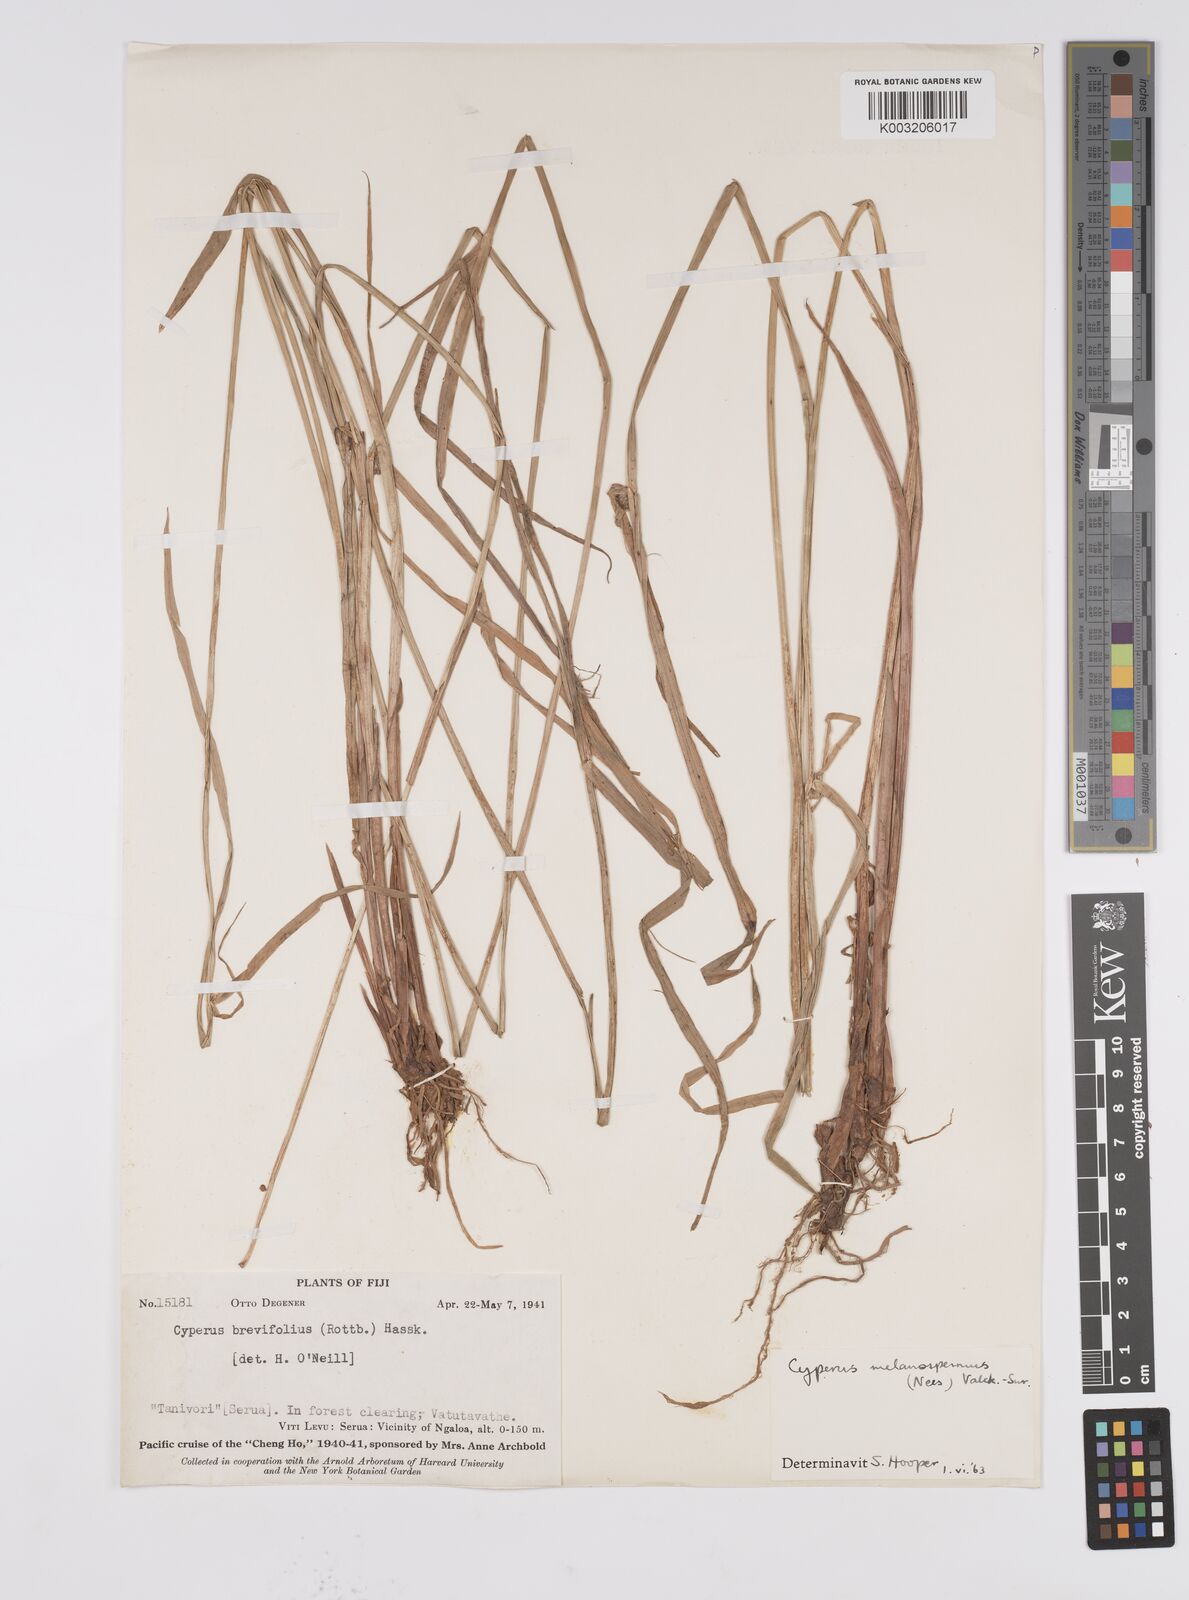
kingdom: Plantae
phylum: Tracheophyta
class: Liliopsida
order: Poales
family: Cyperaceae
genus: Cyperus
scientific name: Cyperus melanospermus
